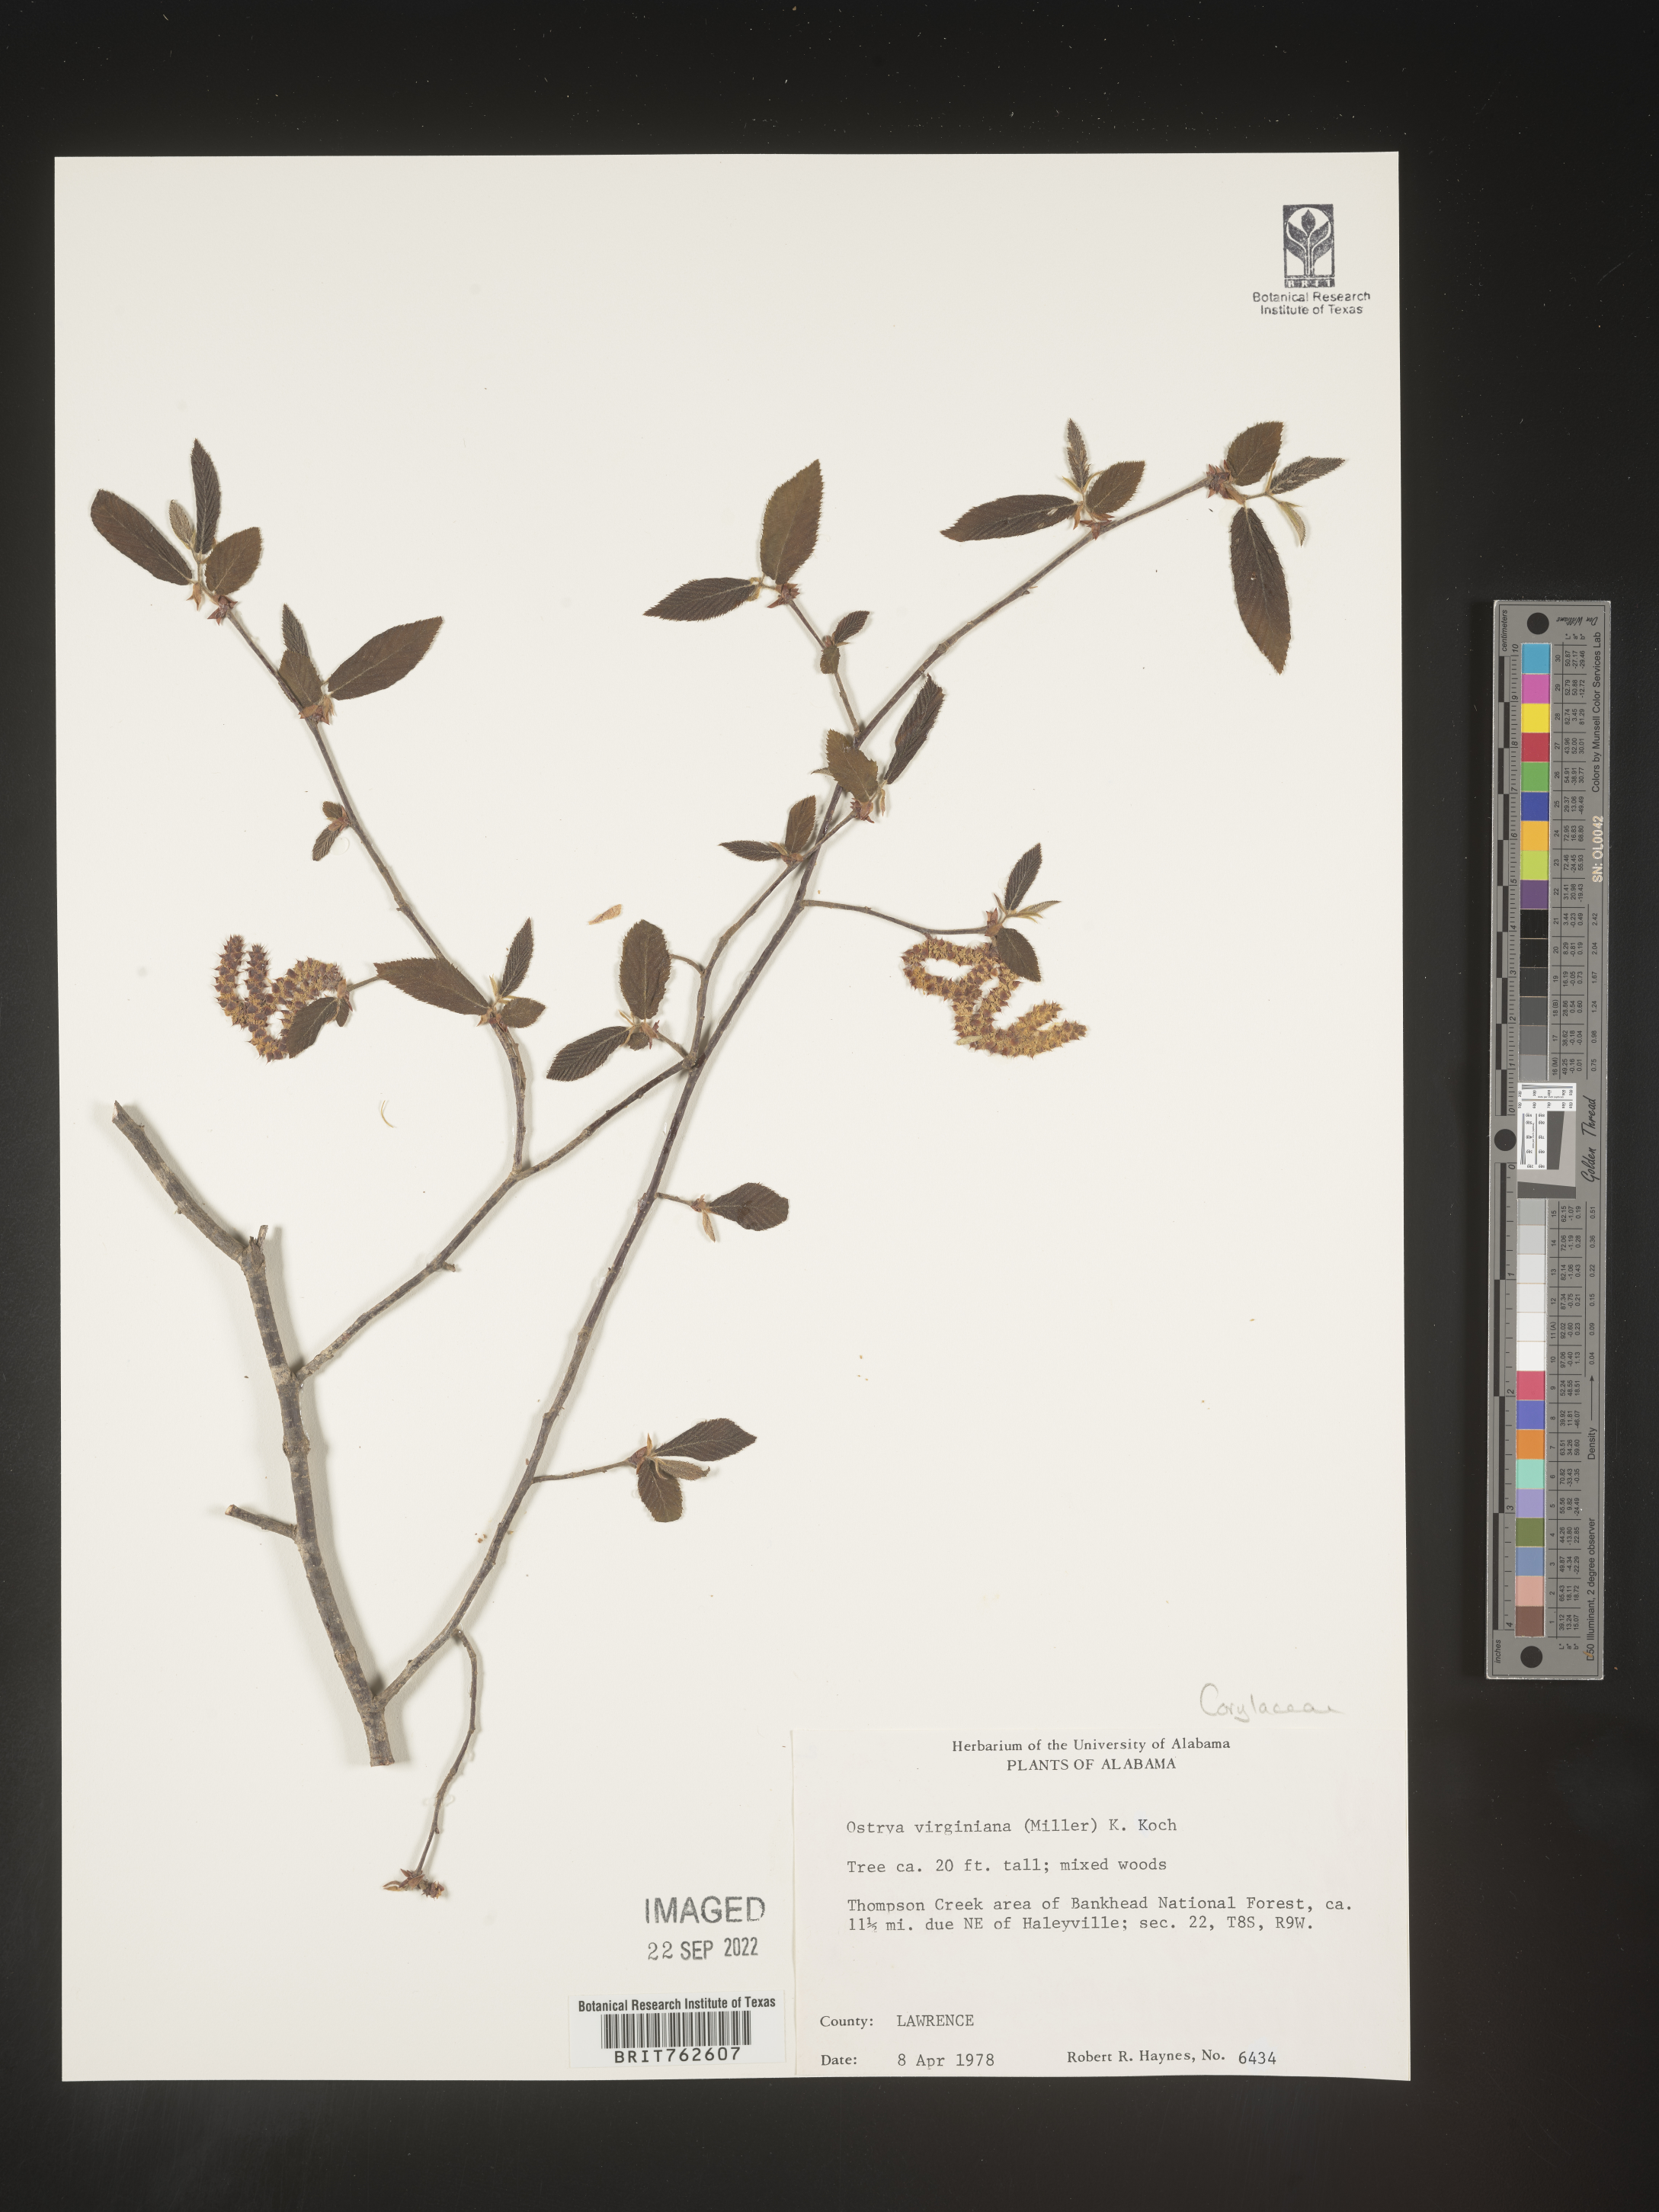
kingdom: Plantae
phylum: Tracheophyta
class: Magnoliopsida
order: Fagales
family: Betulaceae
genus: Ostrya
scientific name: Ostrya virginiana
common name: Ironwood
